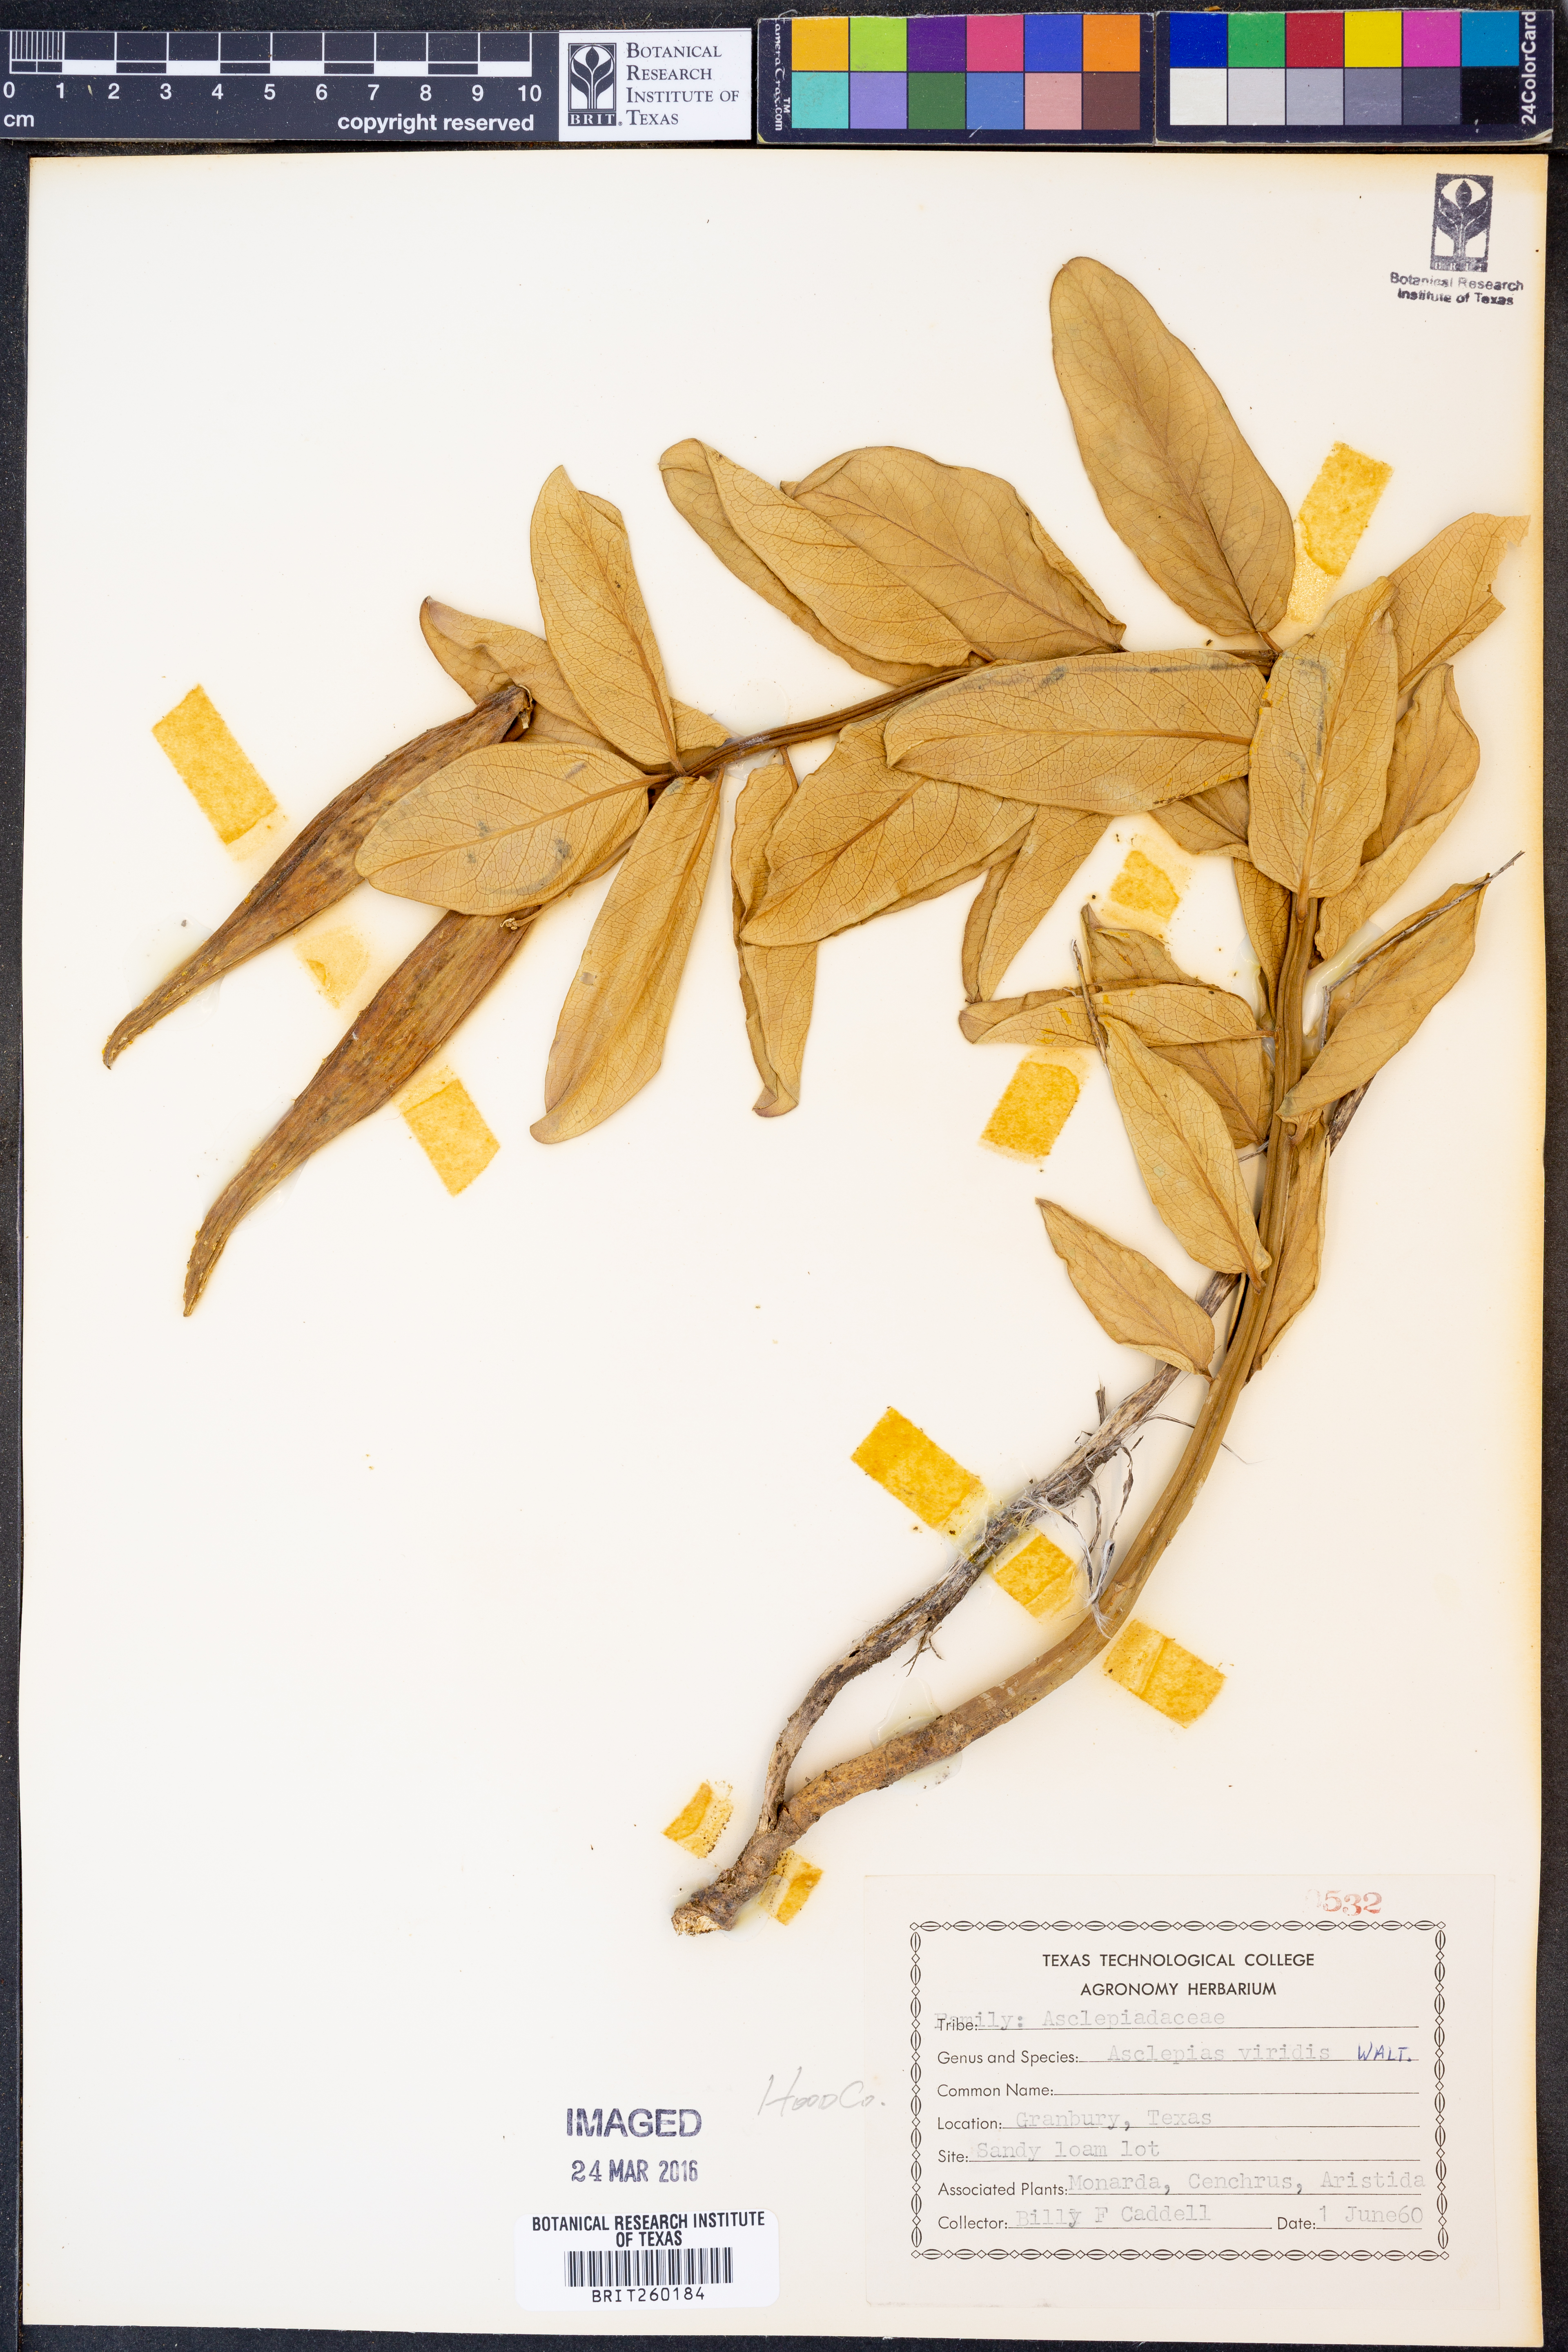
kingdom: Plantae
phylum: Tracheophyta
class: Magnoliopsida
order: Gentianales
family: Apocynaceae
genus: Asclepias
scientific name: Asclepias viridis
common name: Antelope-horns
